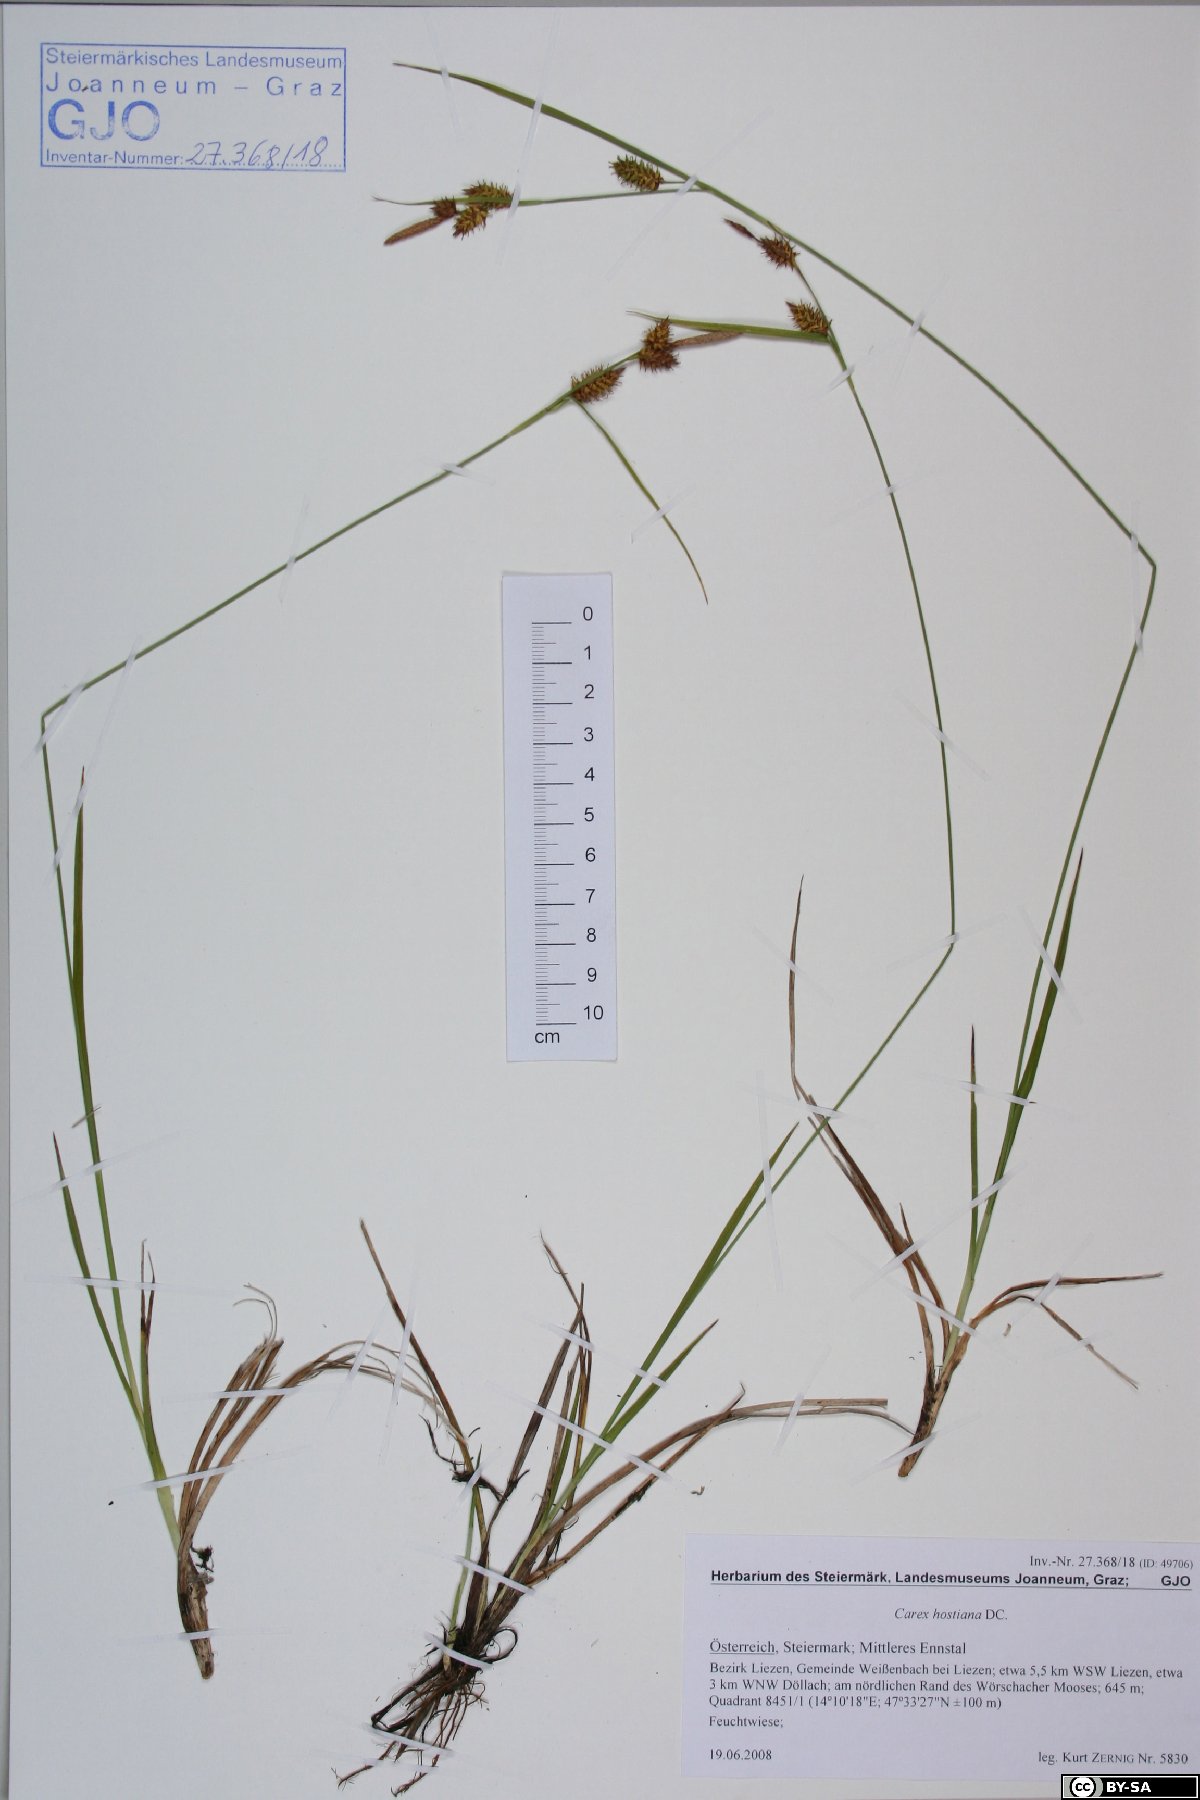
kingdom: Plantae
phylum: Tracheophyta
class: Liliopsida
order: Poales
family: Cyperaceae
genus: Carex
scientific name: Carex hostiana
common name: Tawny sedge
